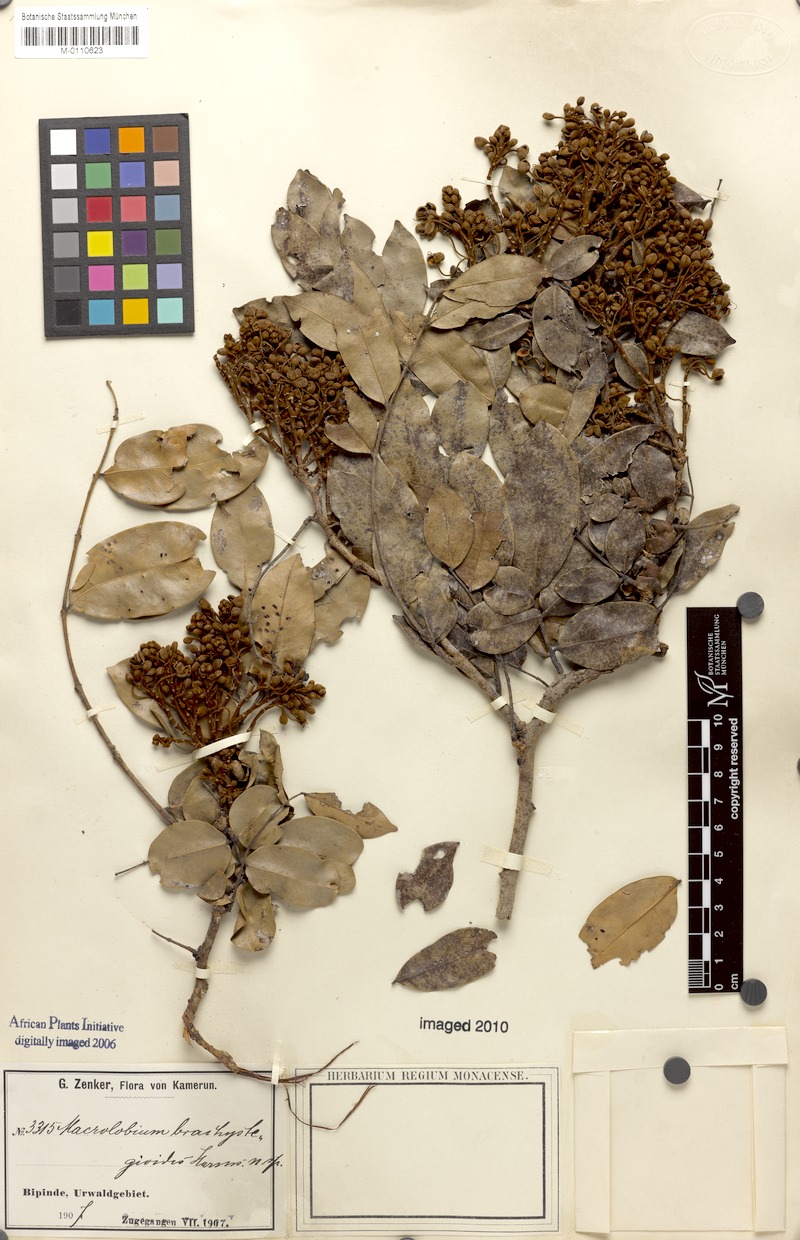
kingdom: Plantae
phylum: Tracheophyta
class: Magnoliopsida
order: Fabales
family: Fabaceae
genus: Gilbertiodendron
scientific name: Gilbertiodendron brachystegioides
